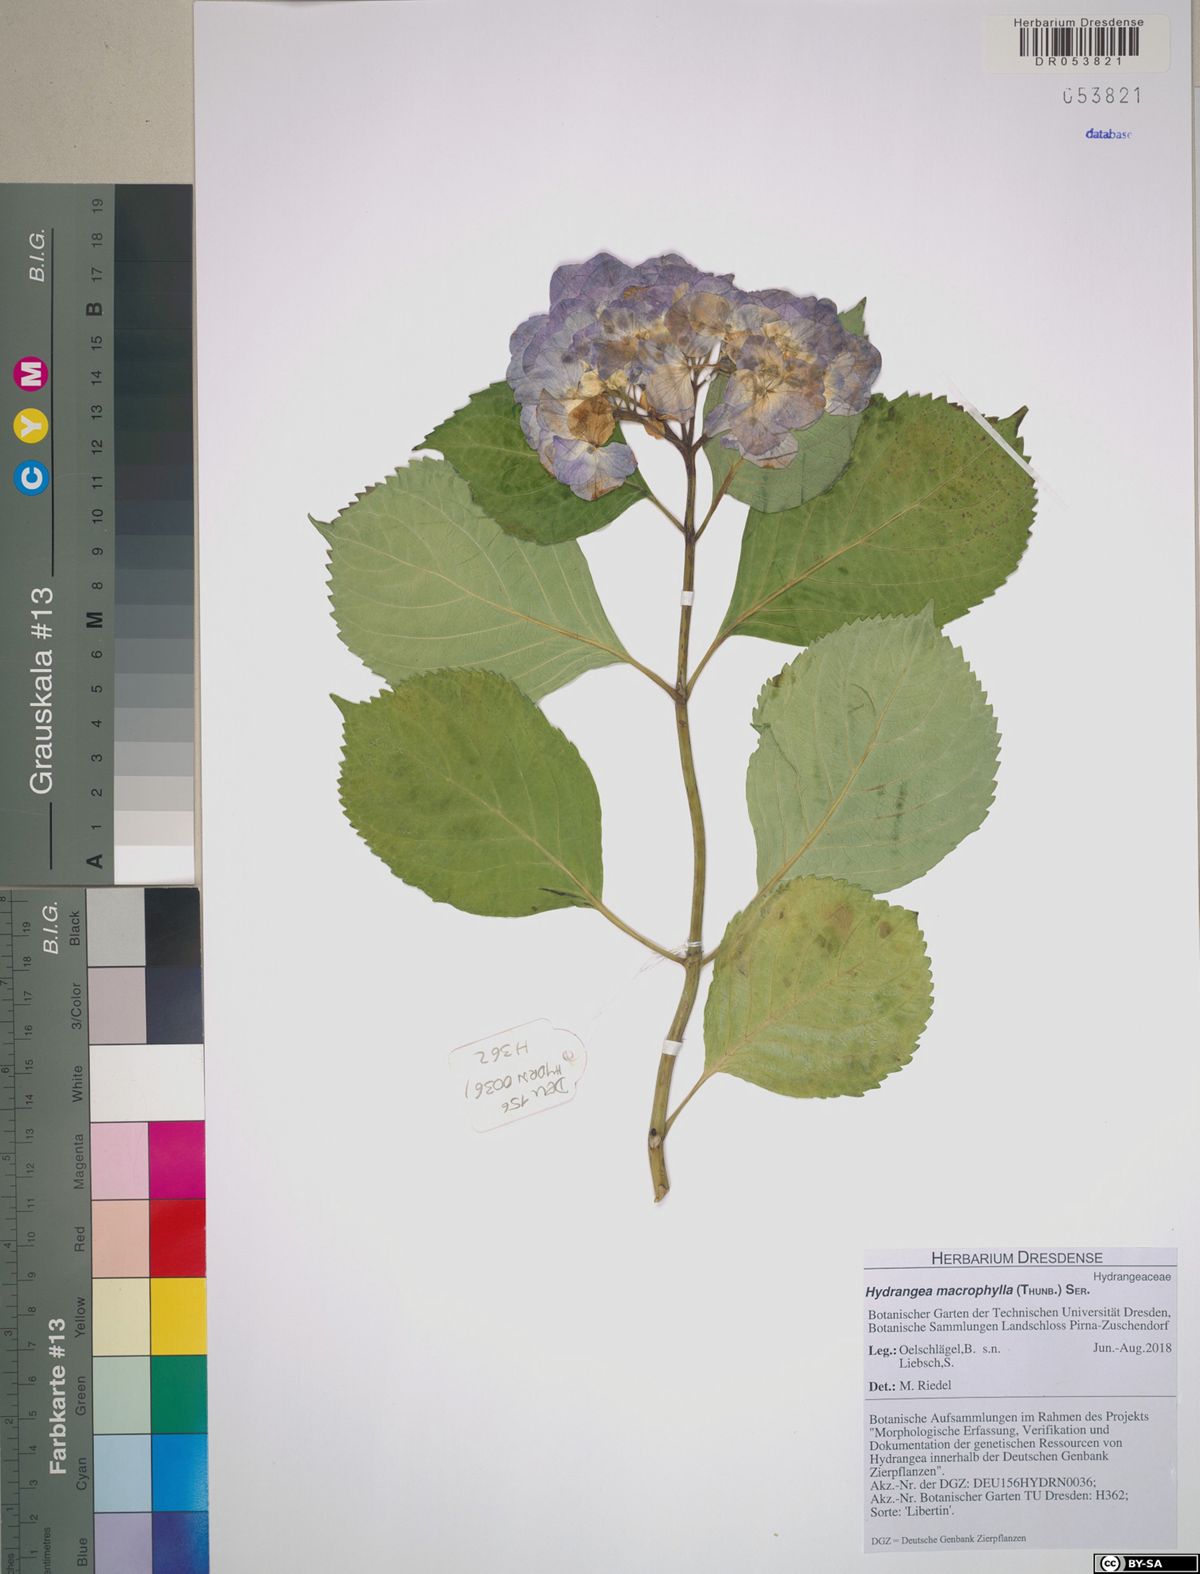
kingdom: Plantae
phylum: Tracheophyta
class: Magnoliopsida
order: Cornales
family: Hydrangeaceae
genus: Hydrangea
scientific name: Hydrangea macrophylla
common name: Hydrangea
